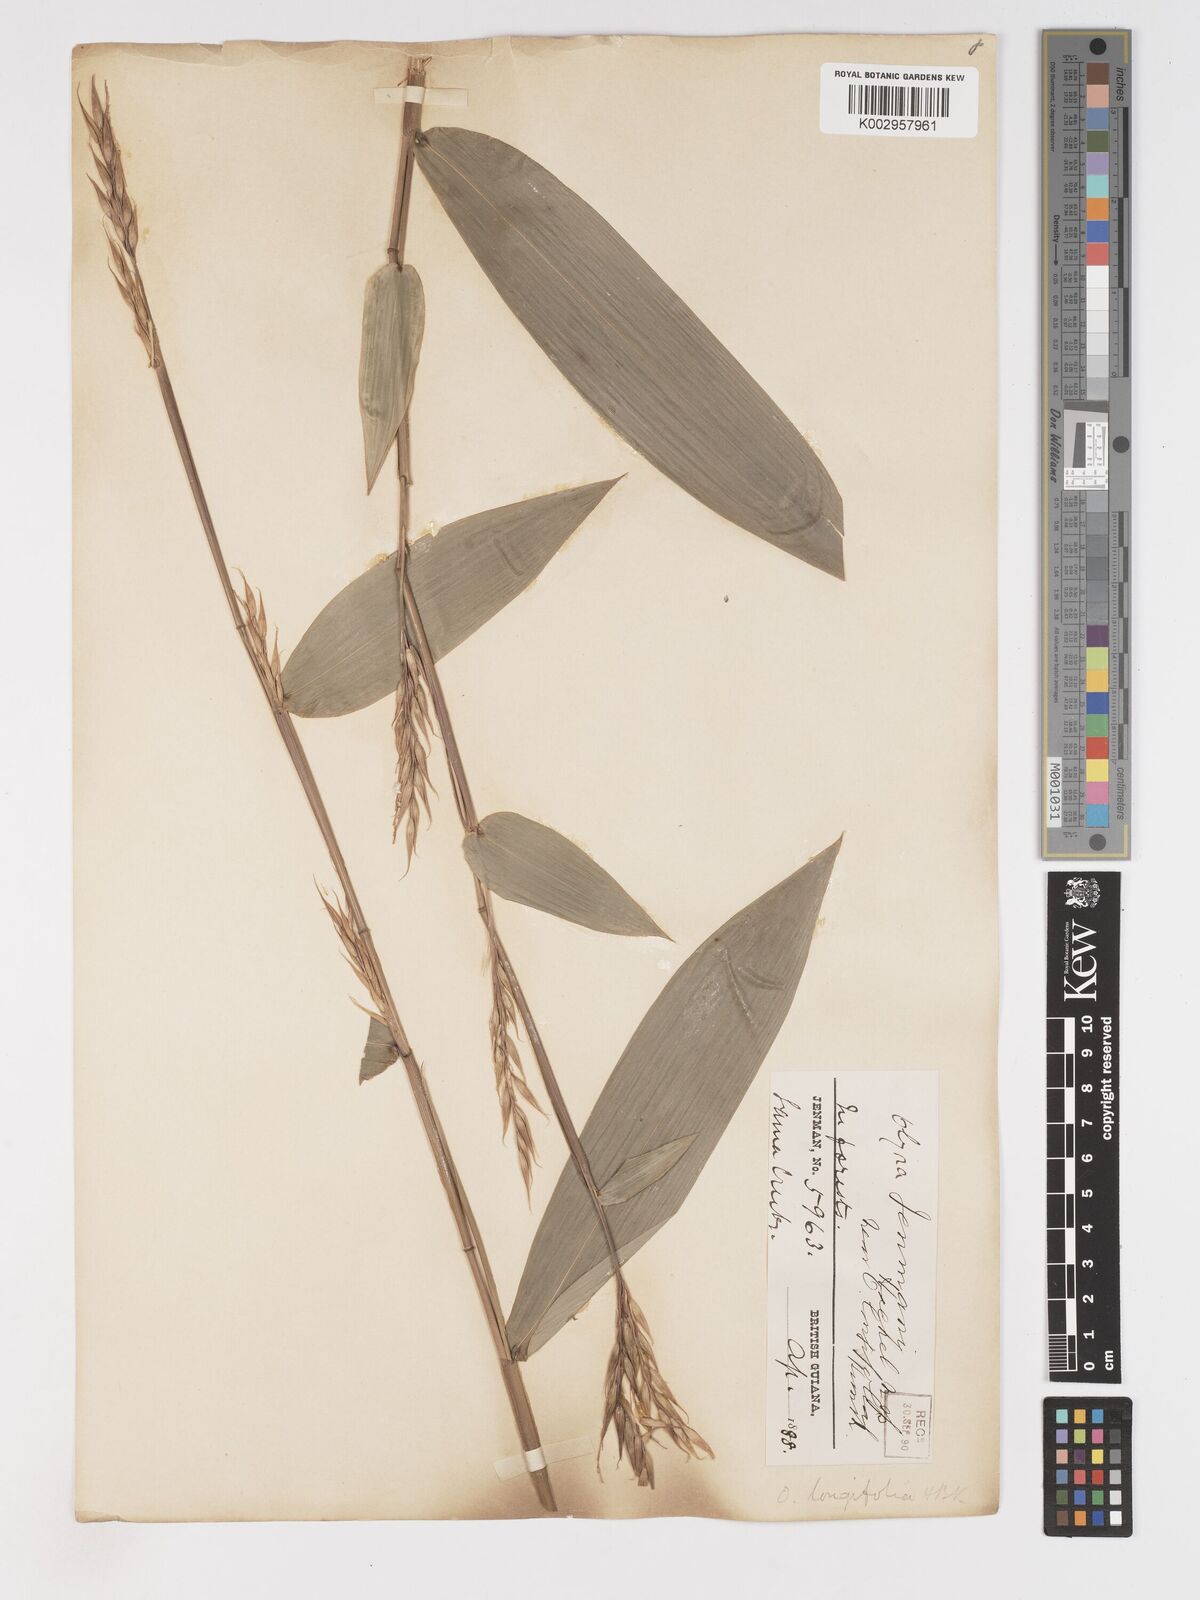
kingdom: Plantae
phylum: Tracheophyta
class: Liliopsida
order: Poales
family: Poaceae
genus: Olyra
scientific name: Olyra longifolia
